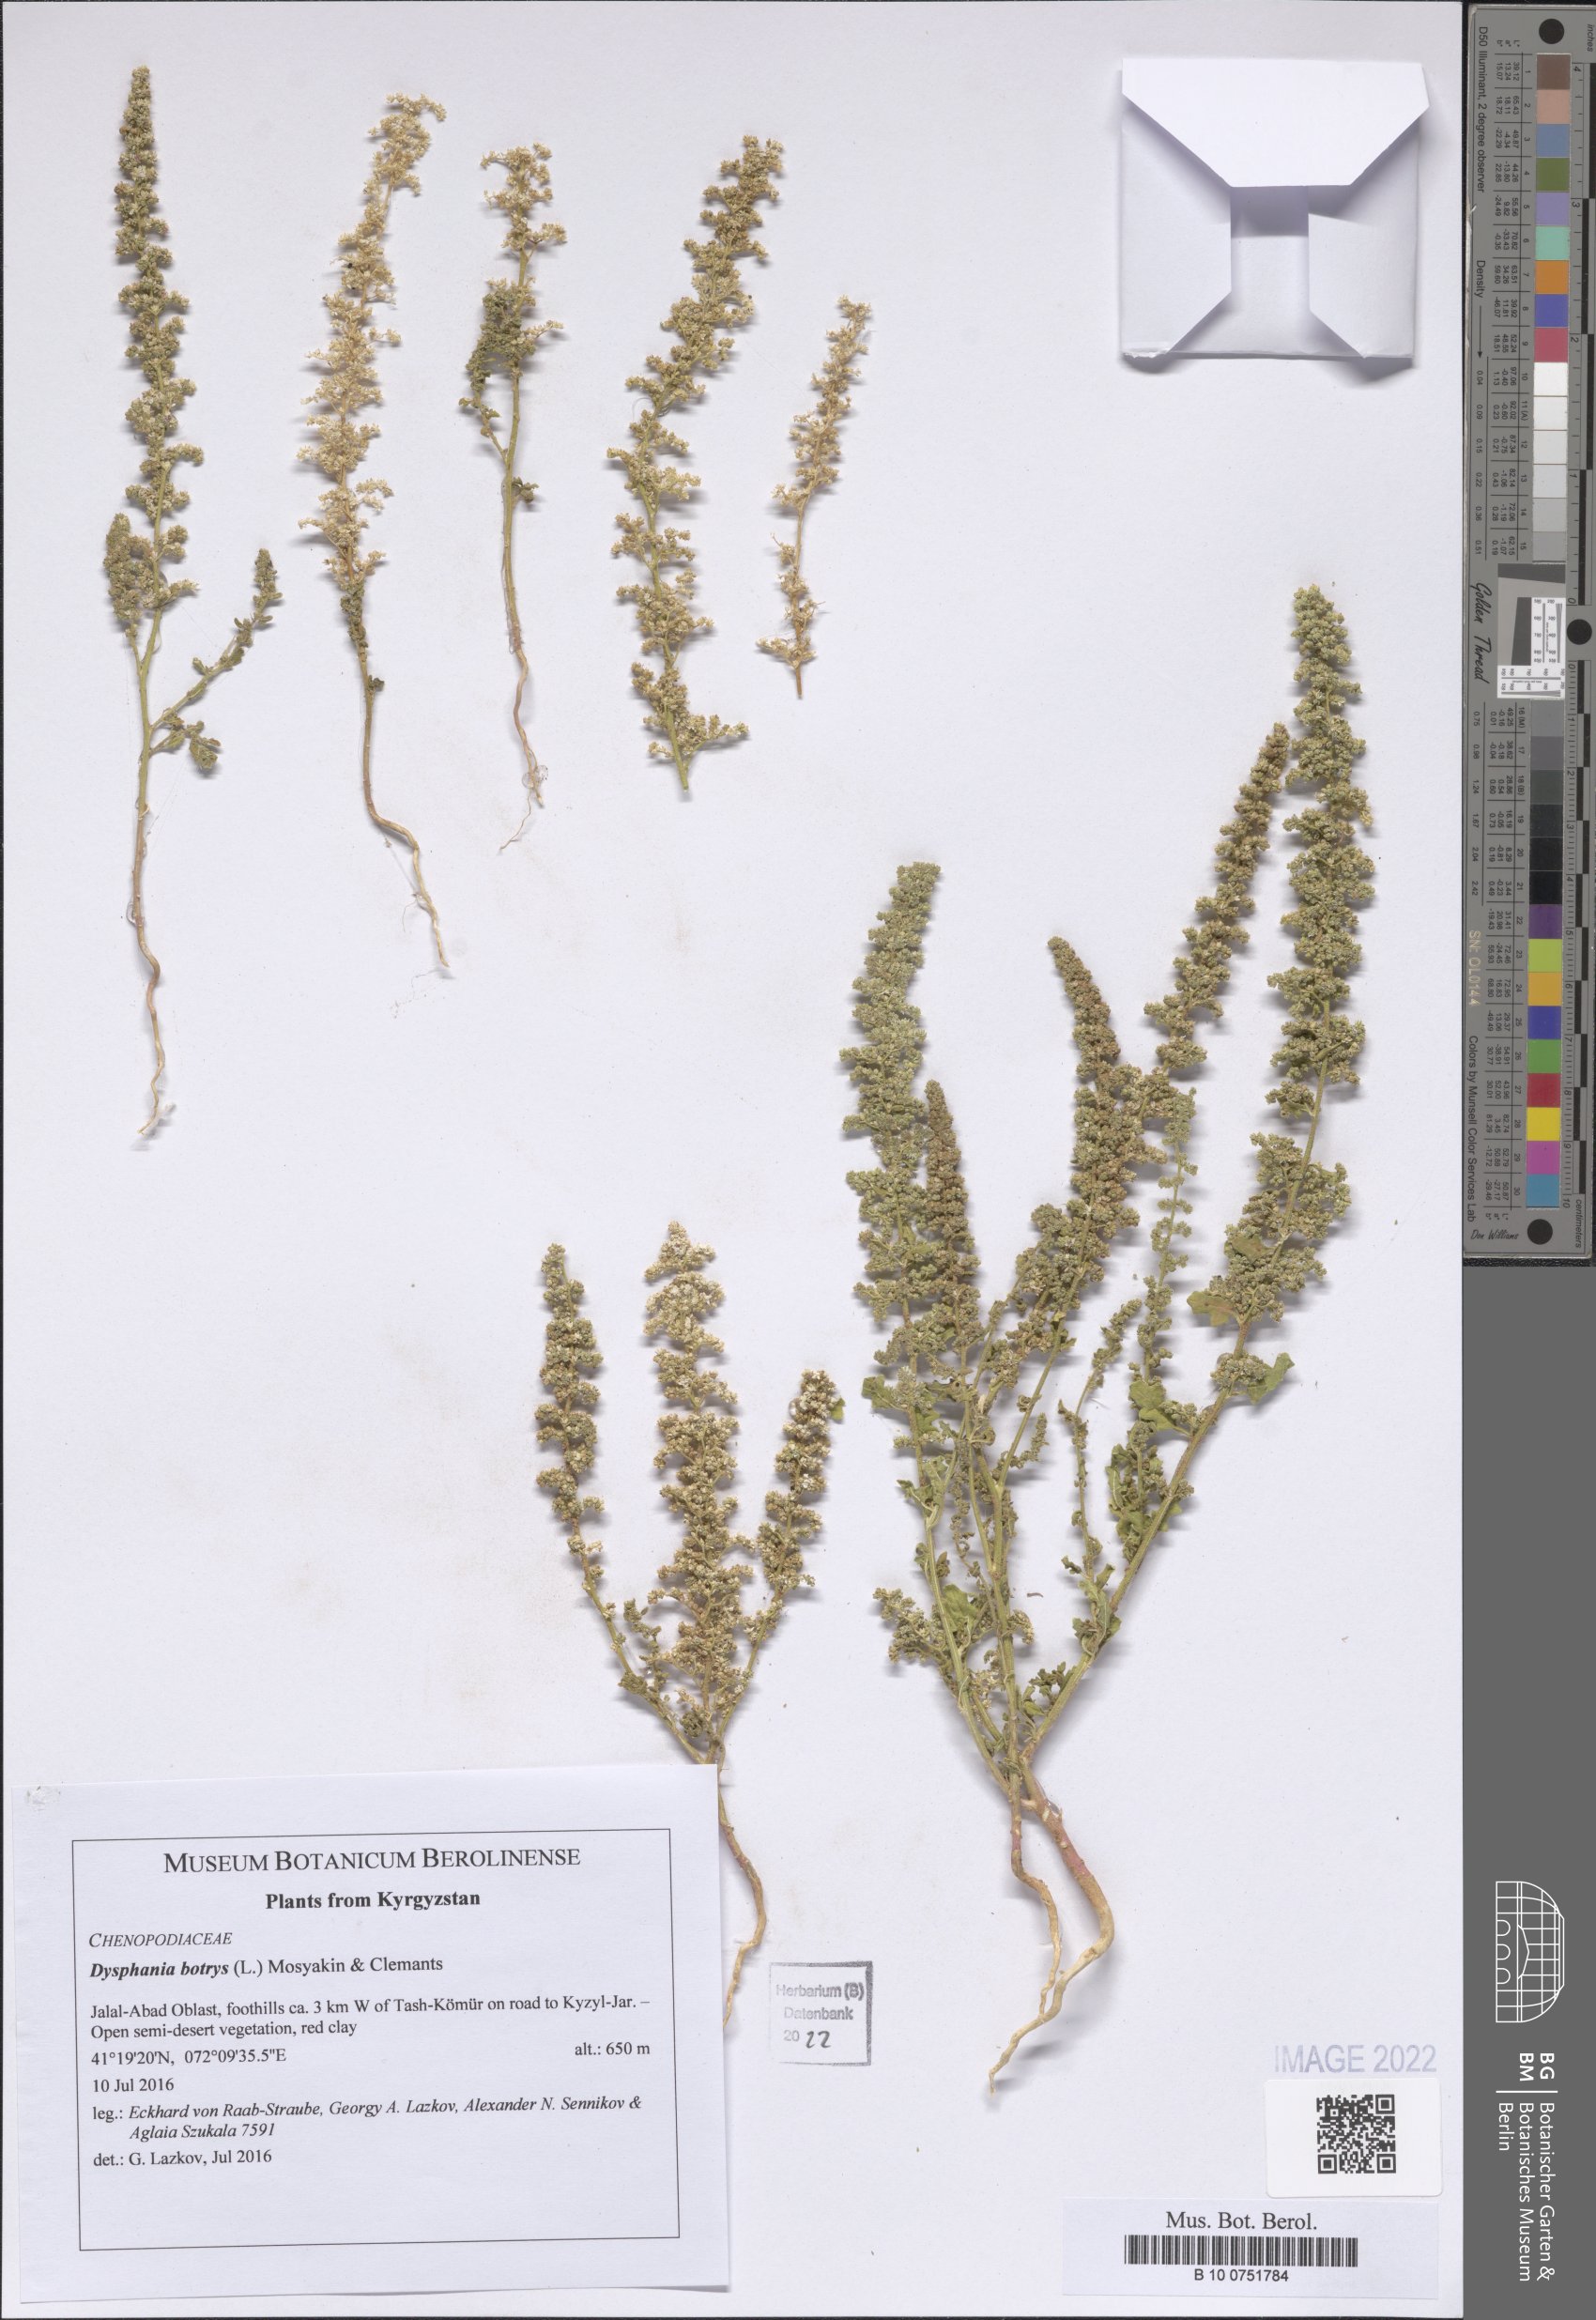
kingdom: Plantae
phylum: Tracheophyta
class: Magnoliopsida
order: Caryophyllales
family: Amaranthaceae
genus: Dysphania
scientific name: Dysphania botrys
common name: Feather-geranium
